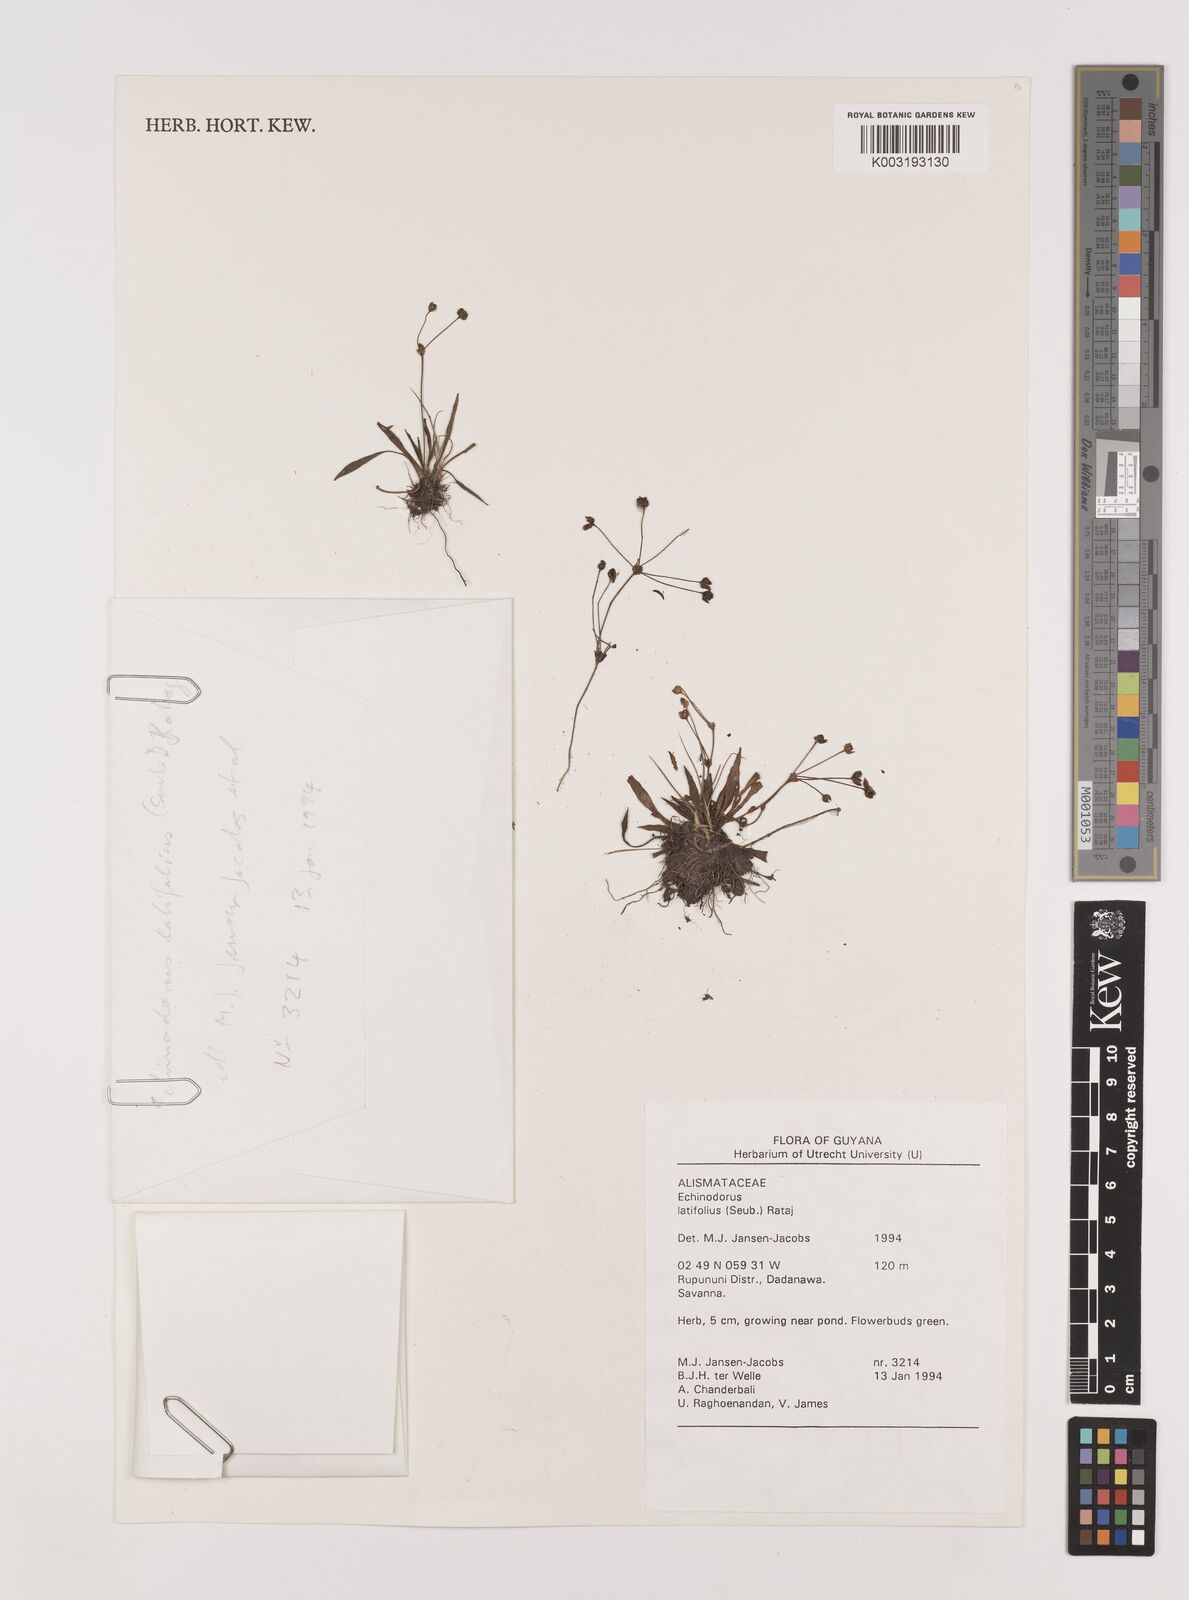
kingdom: Plantae
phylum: Tracheophyta
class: Liliopsida
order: Alismatales
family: Alismataceae
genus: Helanthium
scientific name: Helanthium bolivianum
